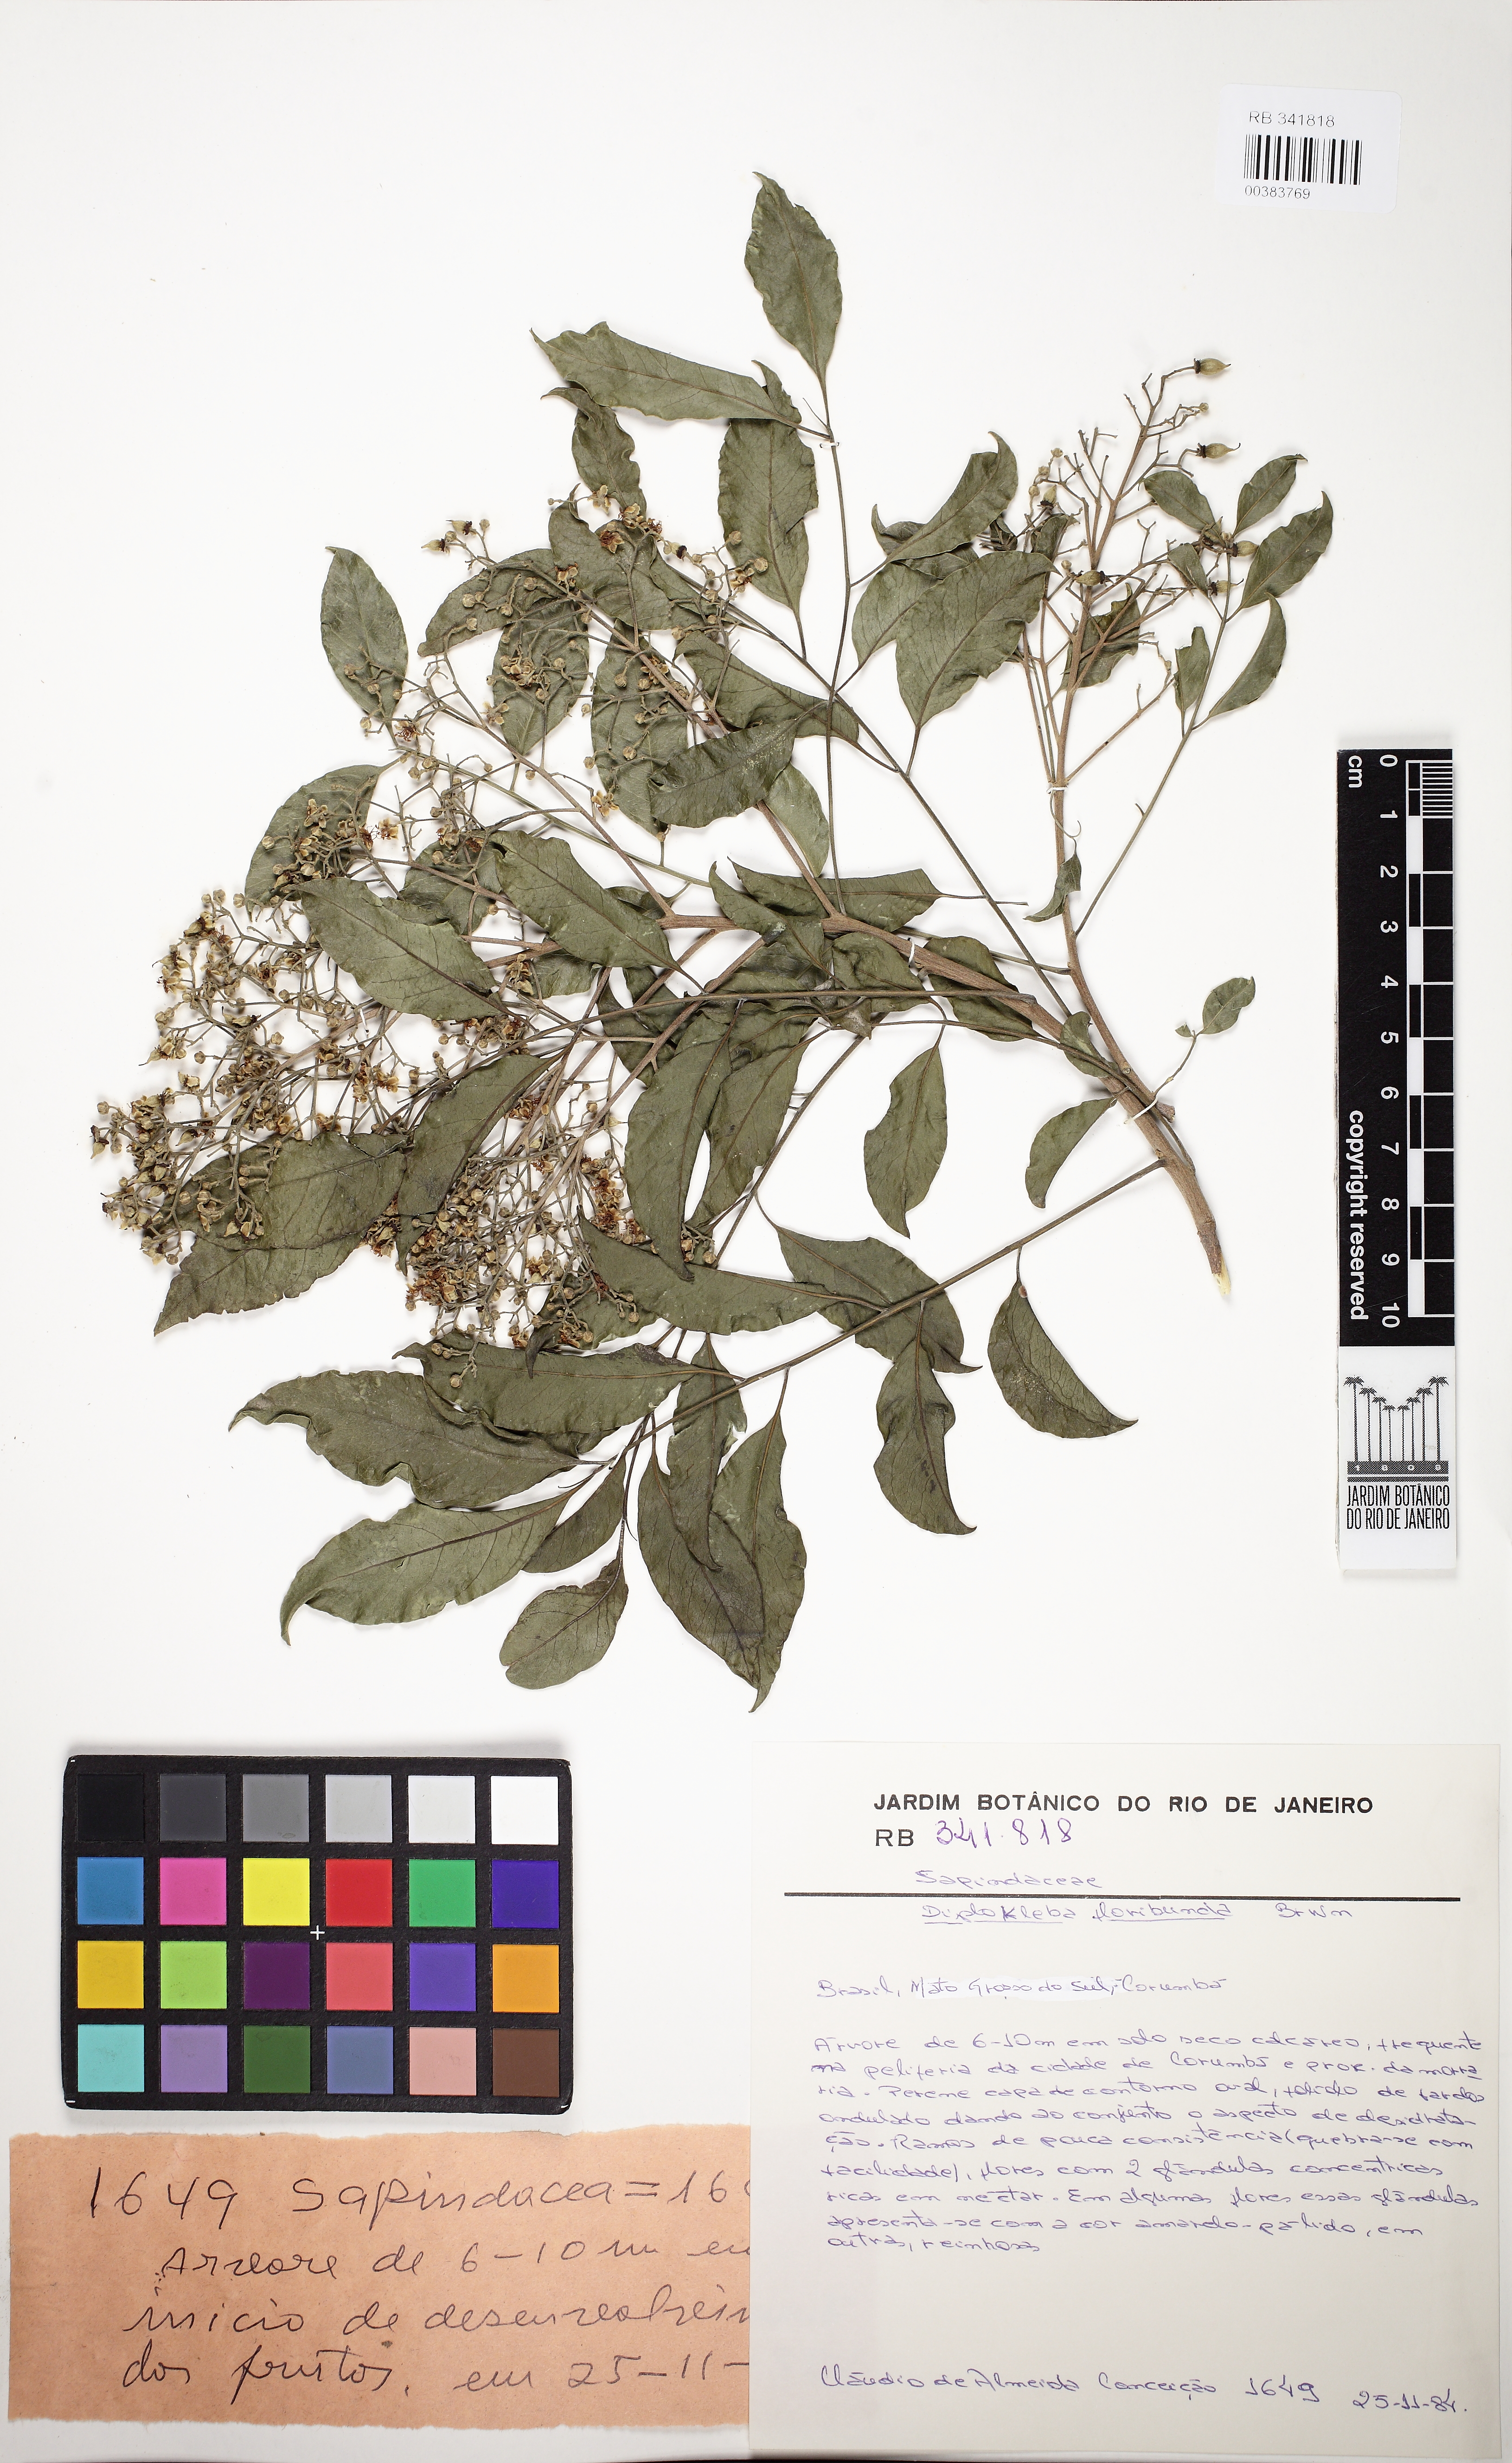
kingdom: Plantae
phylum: Tracheophyta
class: Magnoliopsida
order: Sapindales
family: Sapindaceae
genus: Diplokeleba
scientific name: Diplokeleba floribunda
